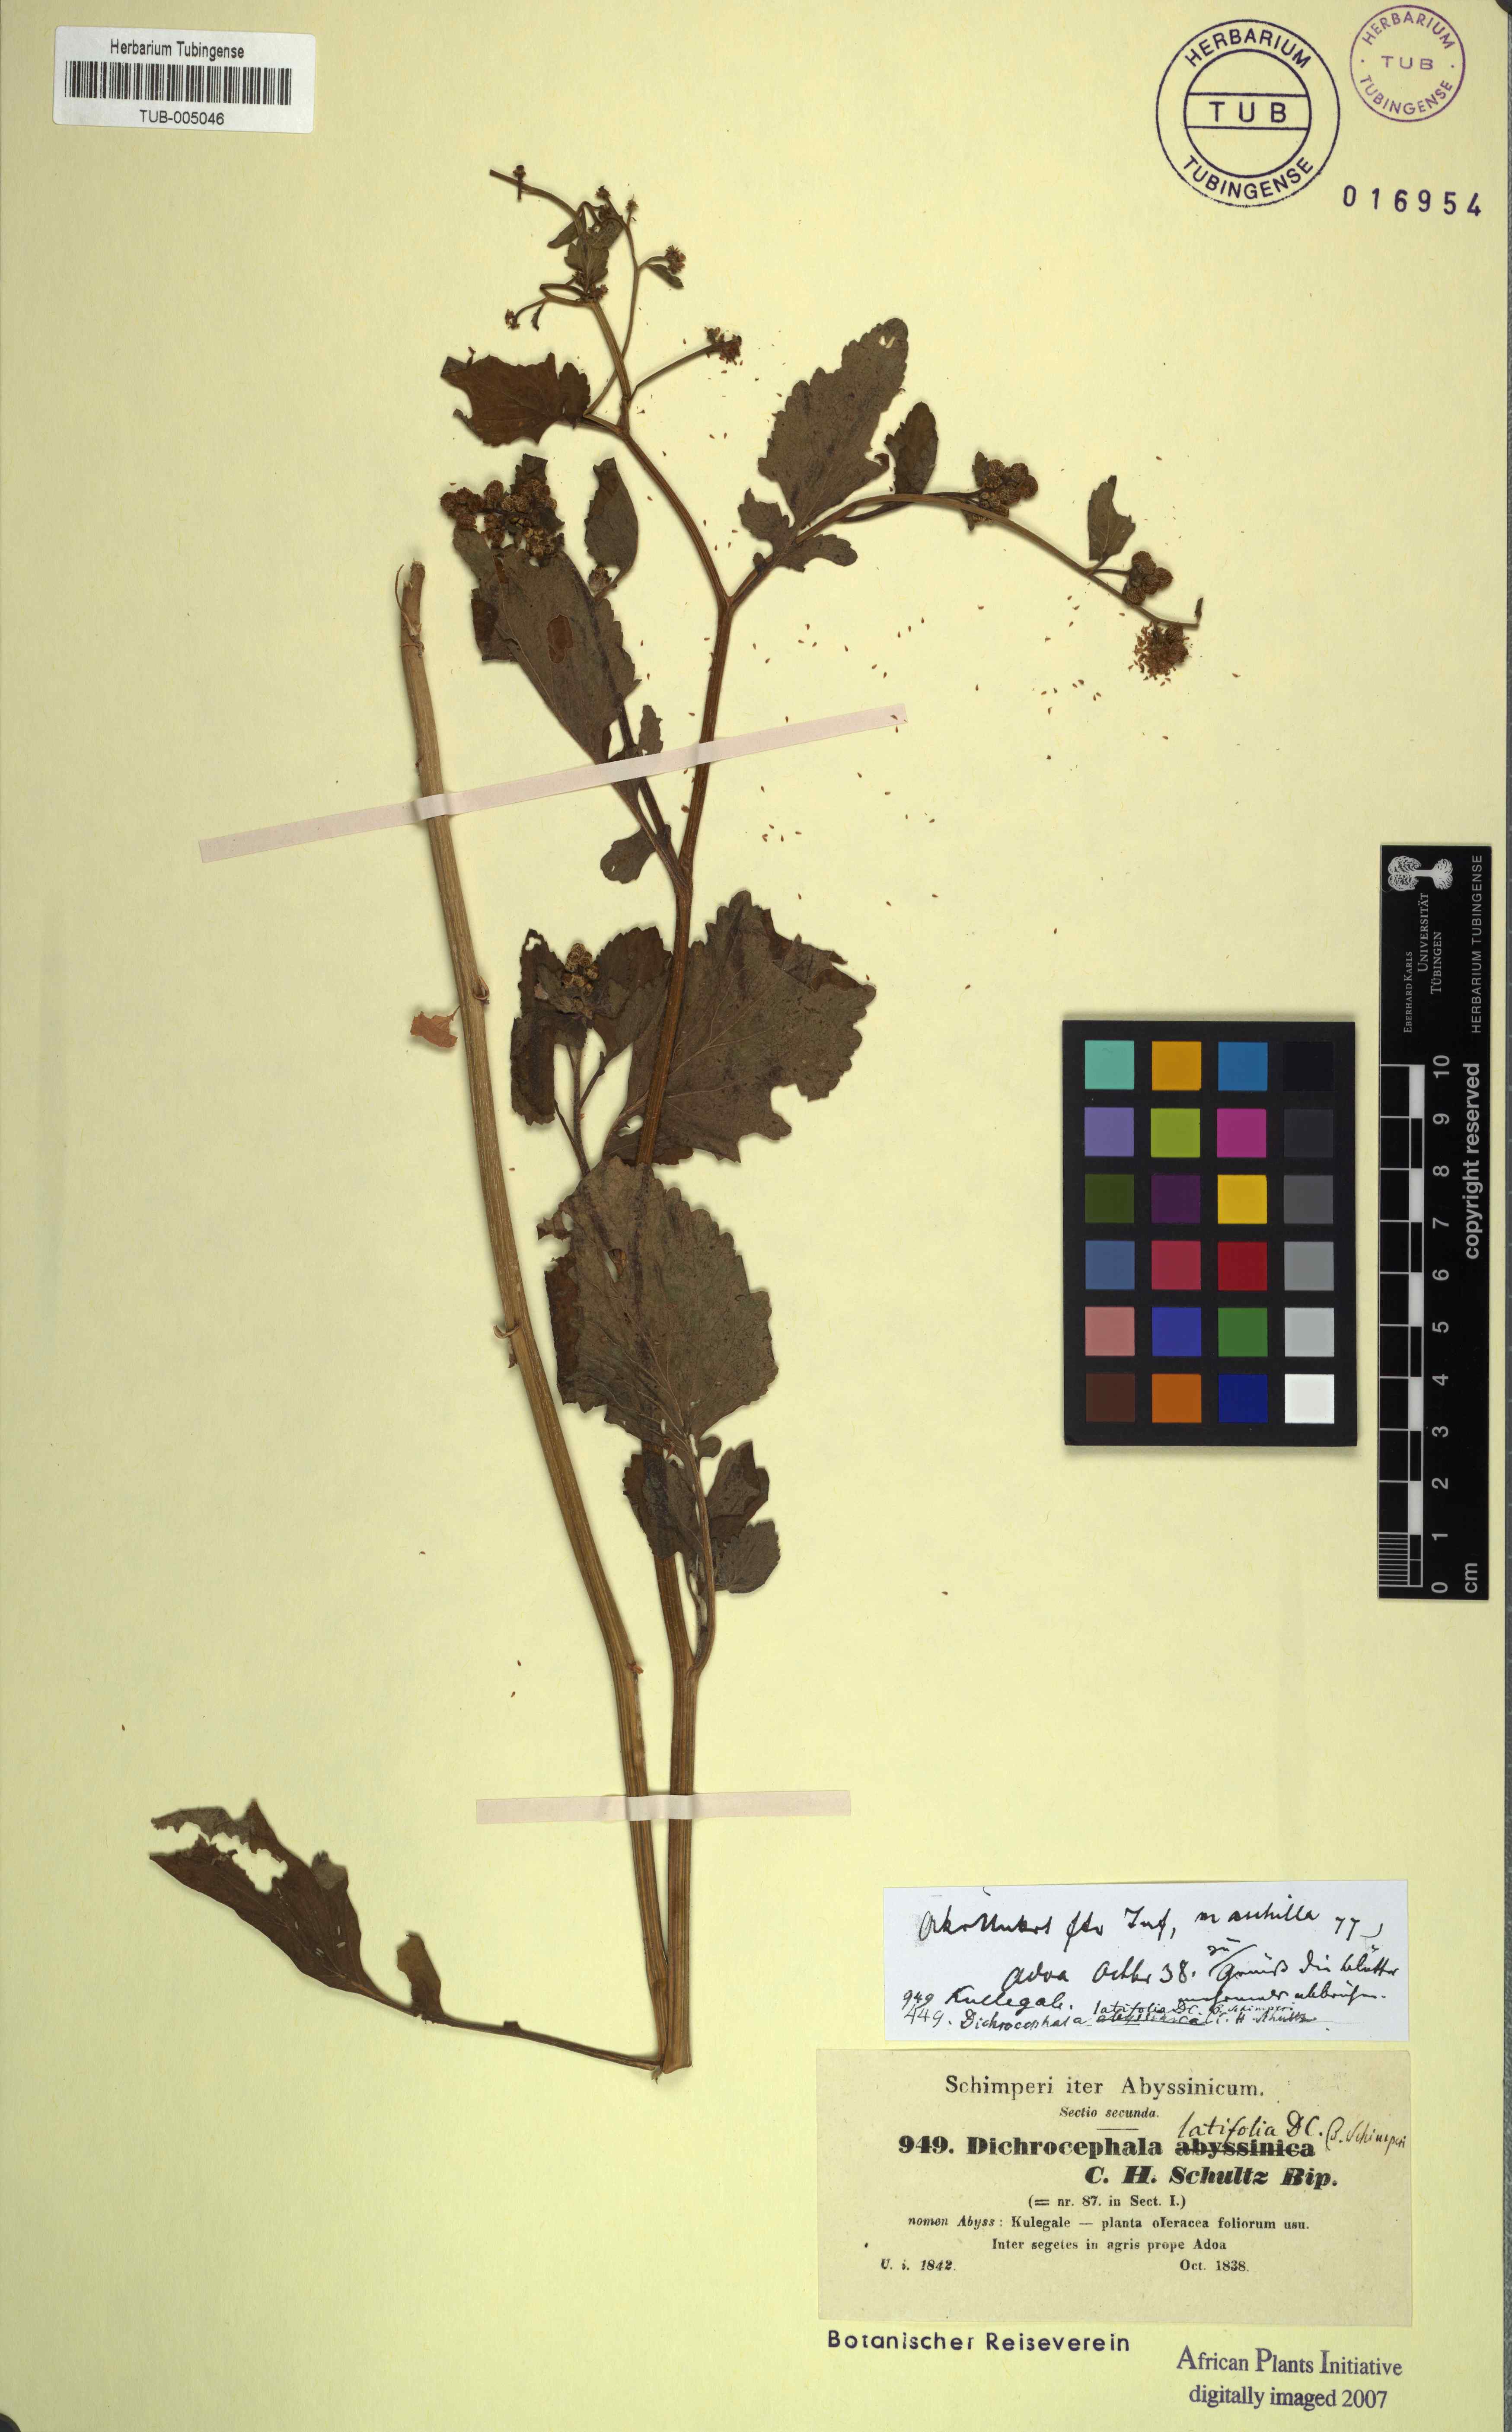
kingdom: Plantae
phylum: Tracheophyta
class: Magnoliopsida
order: Asterales
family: Asteraceae
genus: Dichrocephala
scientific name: Dichrocephala integrifolia
